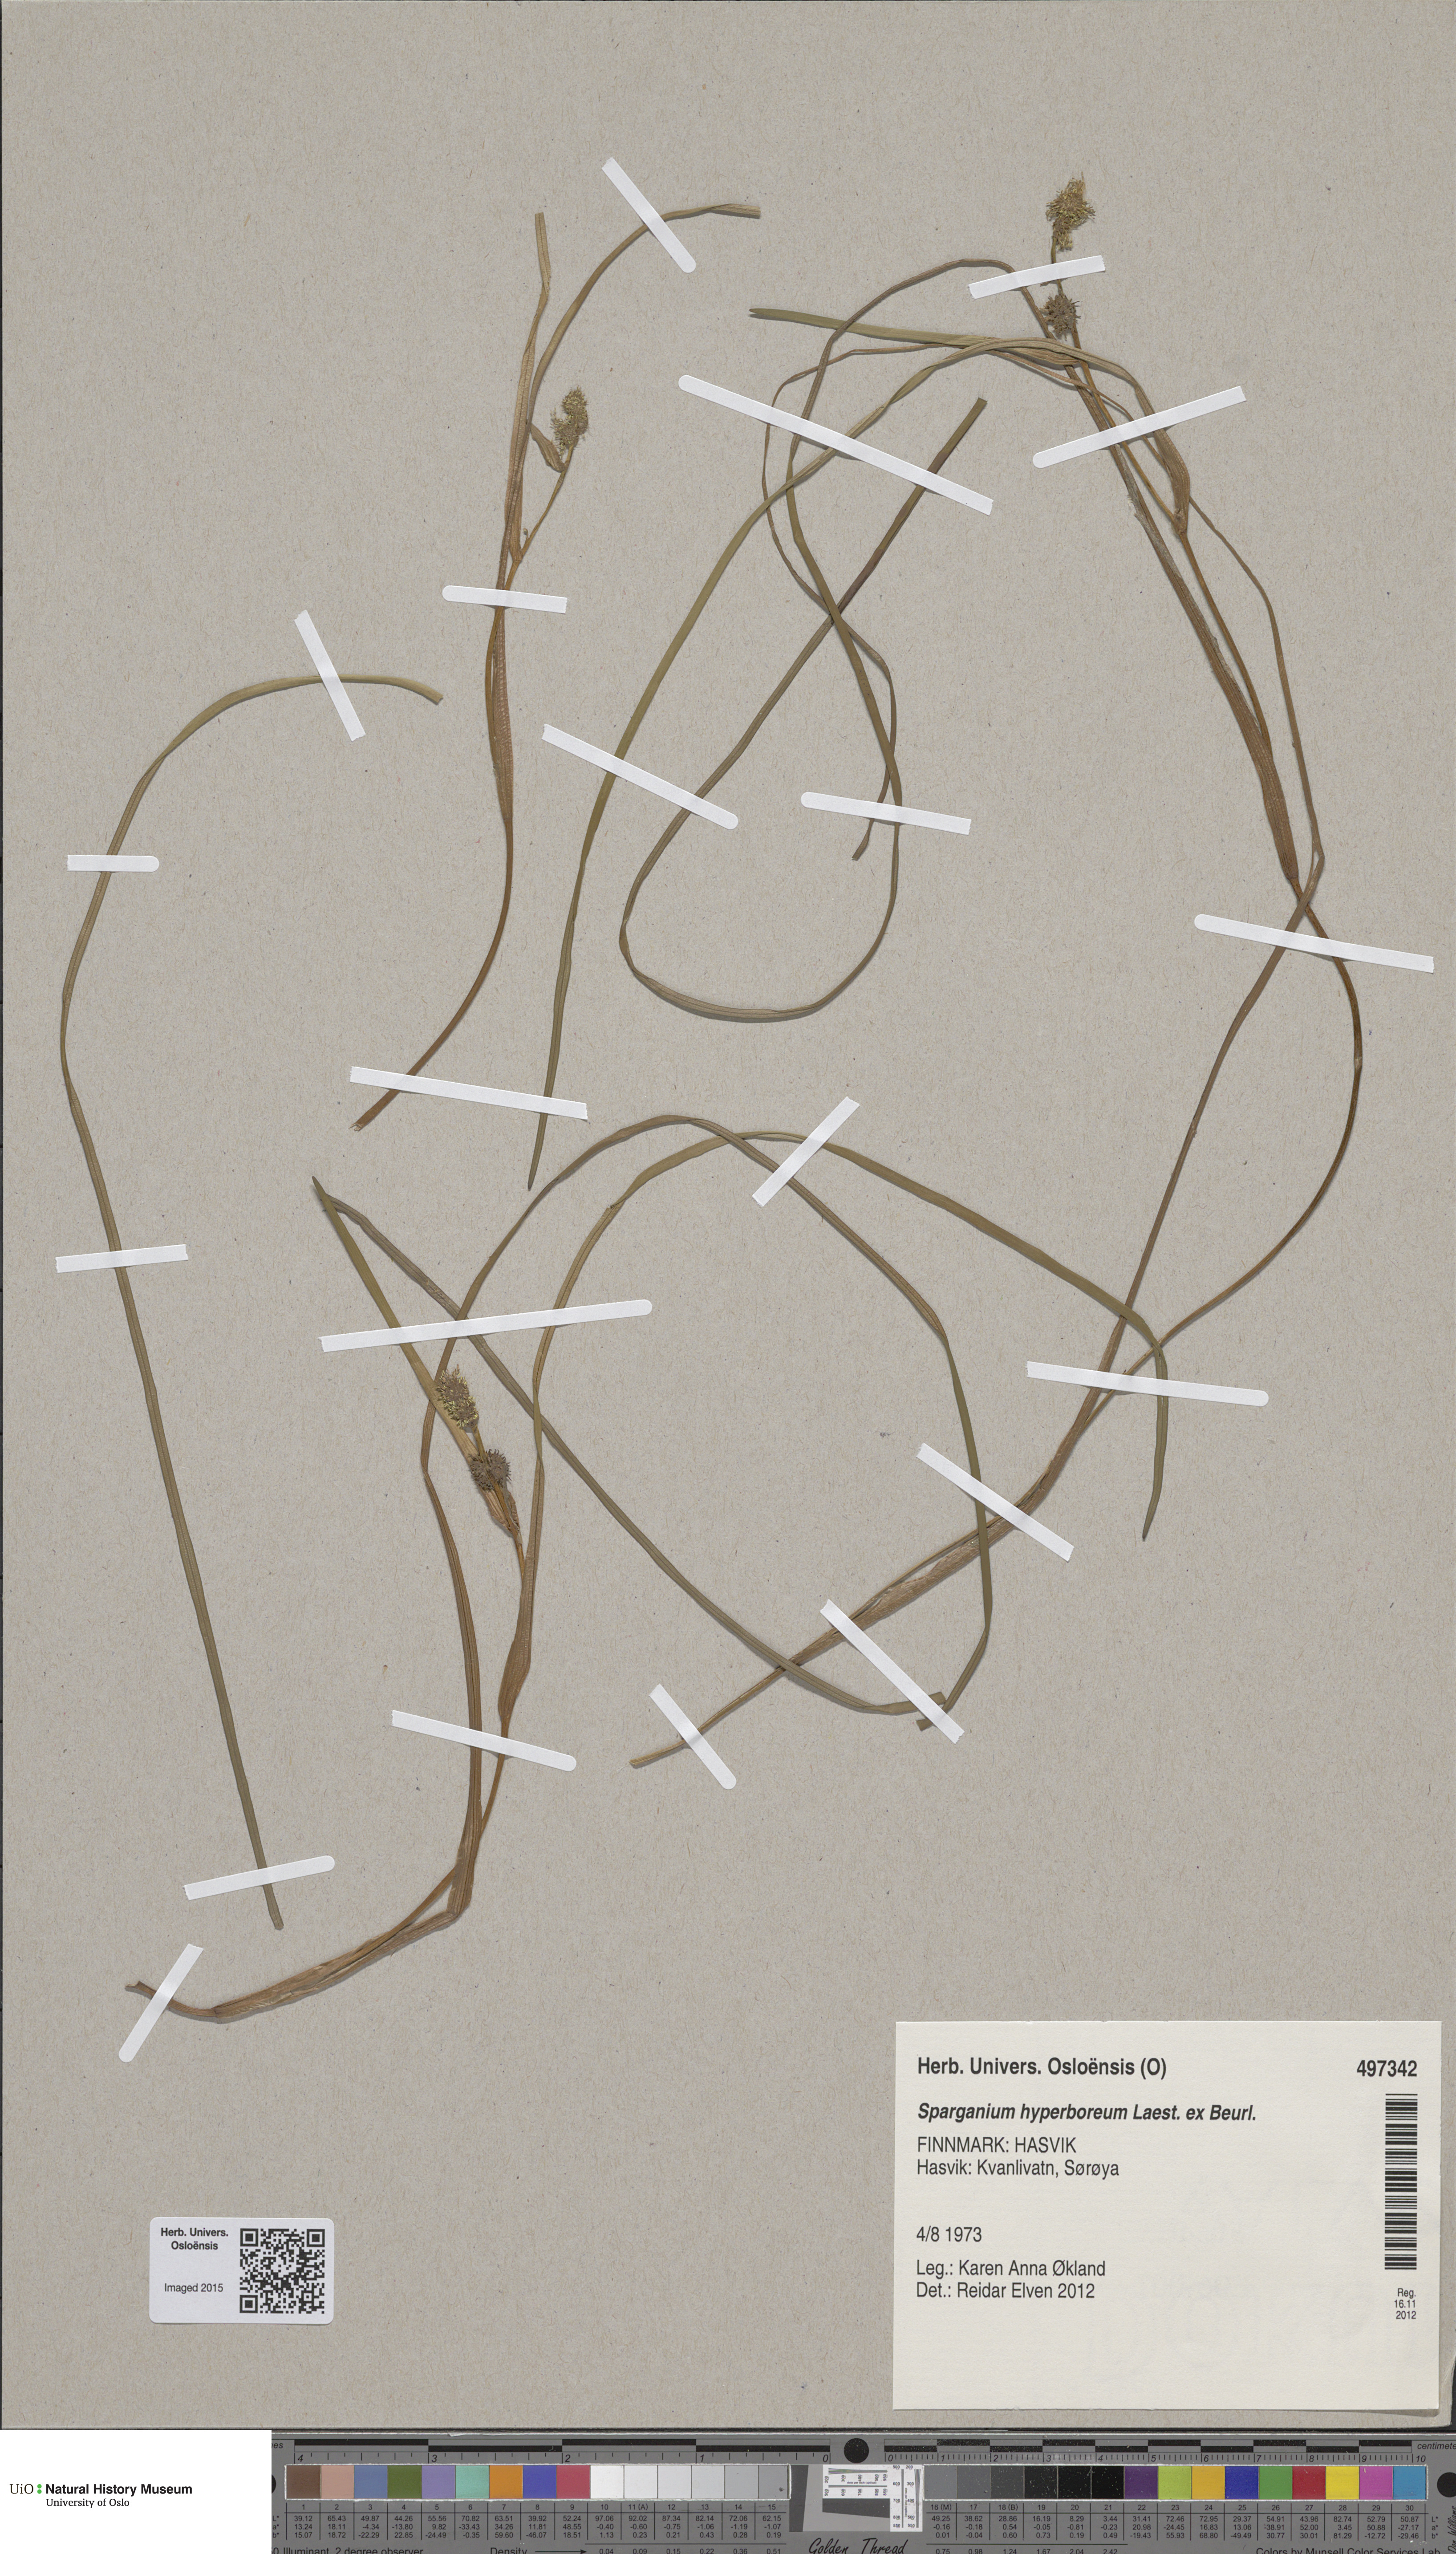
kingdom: Plantae
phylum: Tracheophyta
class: Liliopsida
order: Poales
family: Typhaceae
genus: Sparganium
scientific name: Sparganium hyperboreum
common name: Arctic burreed
